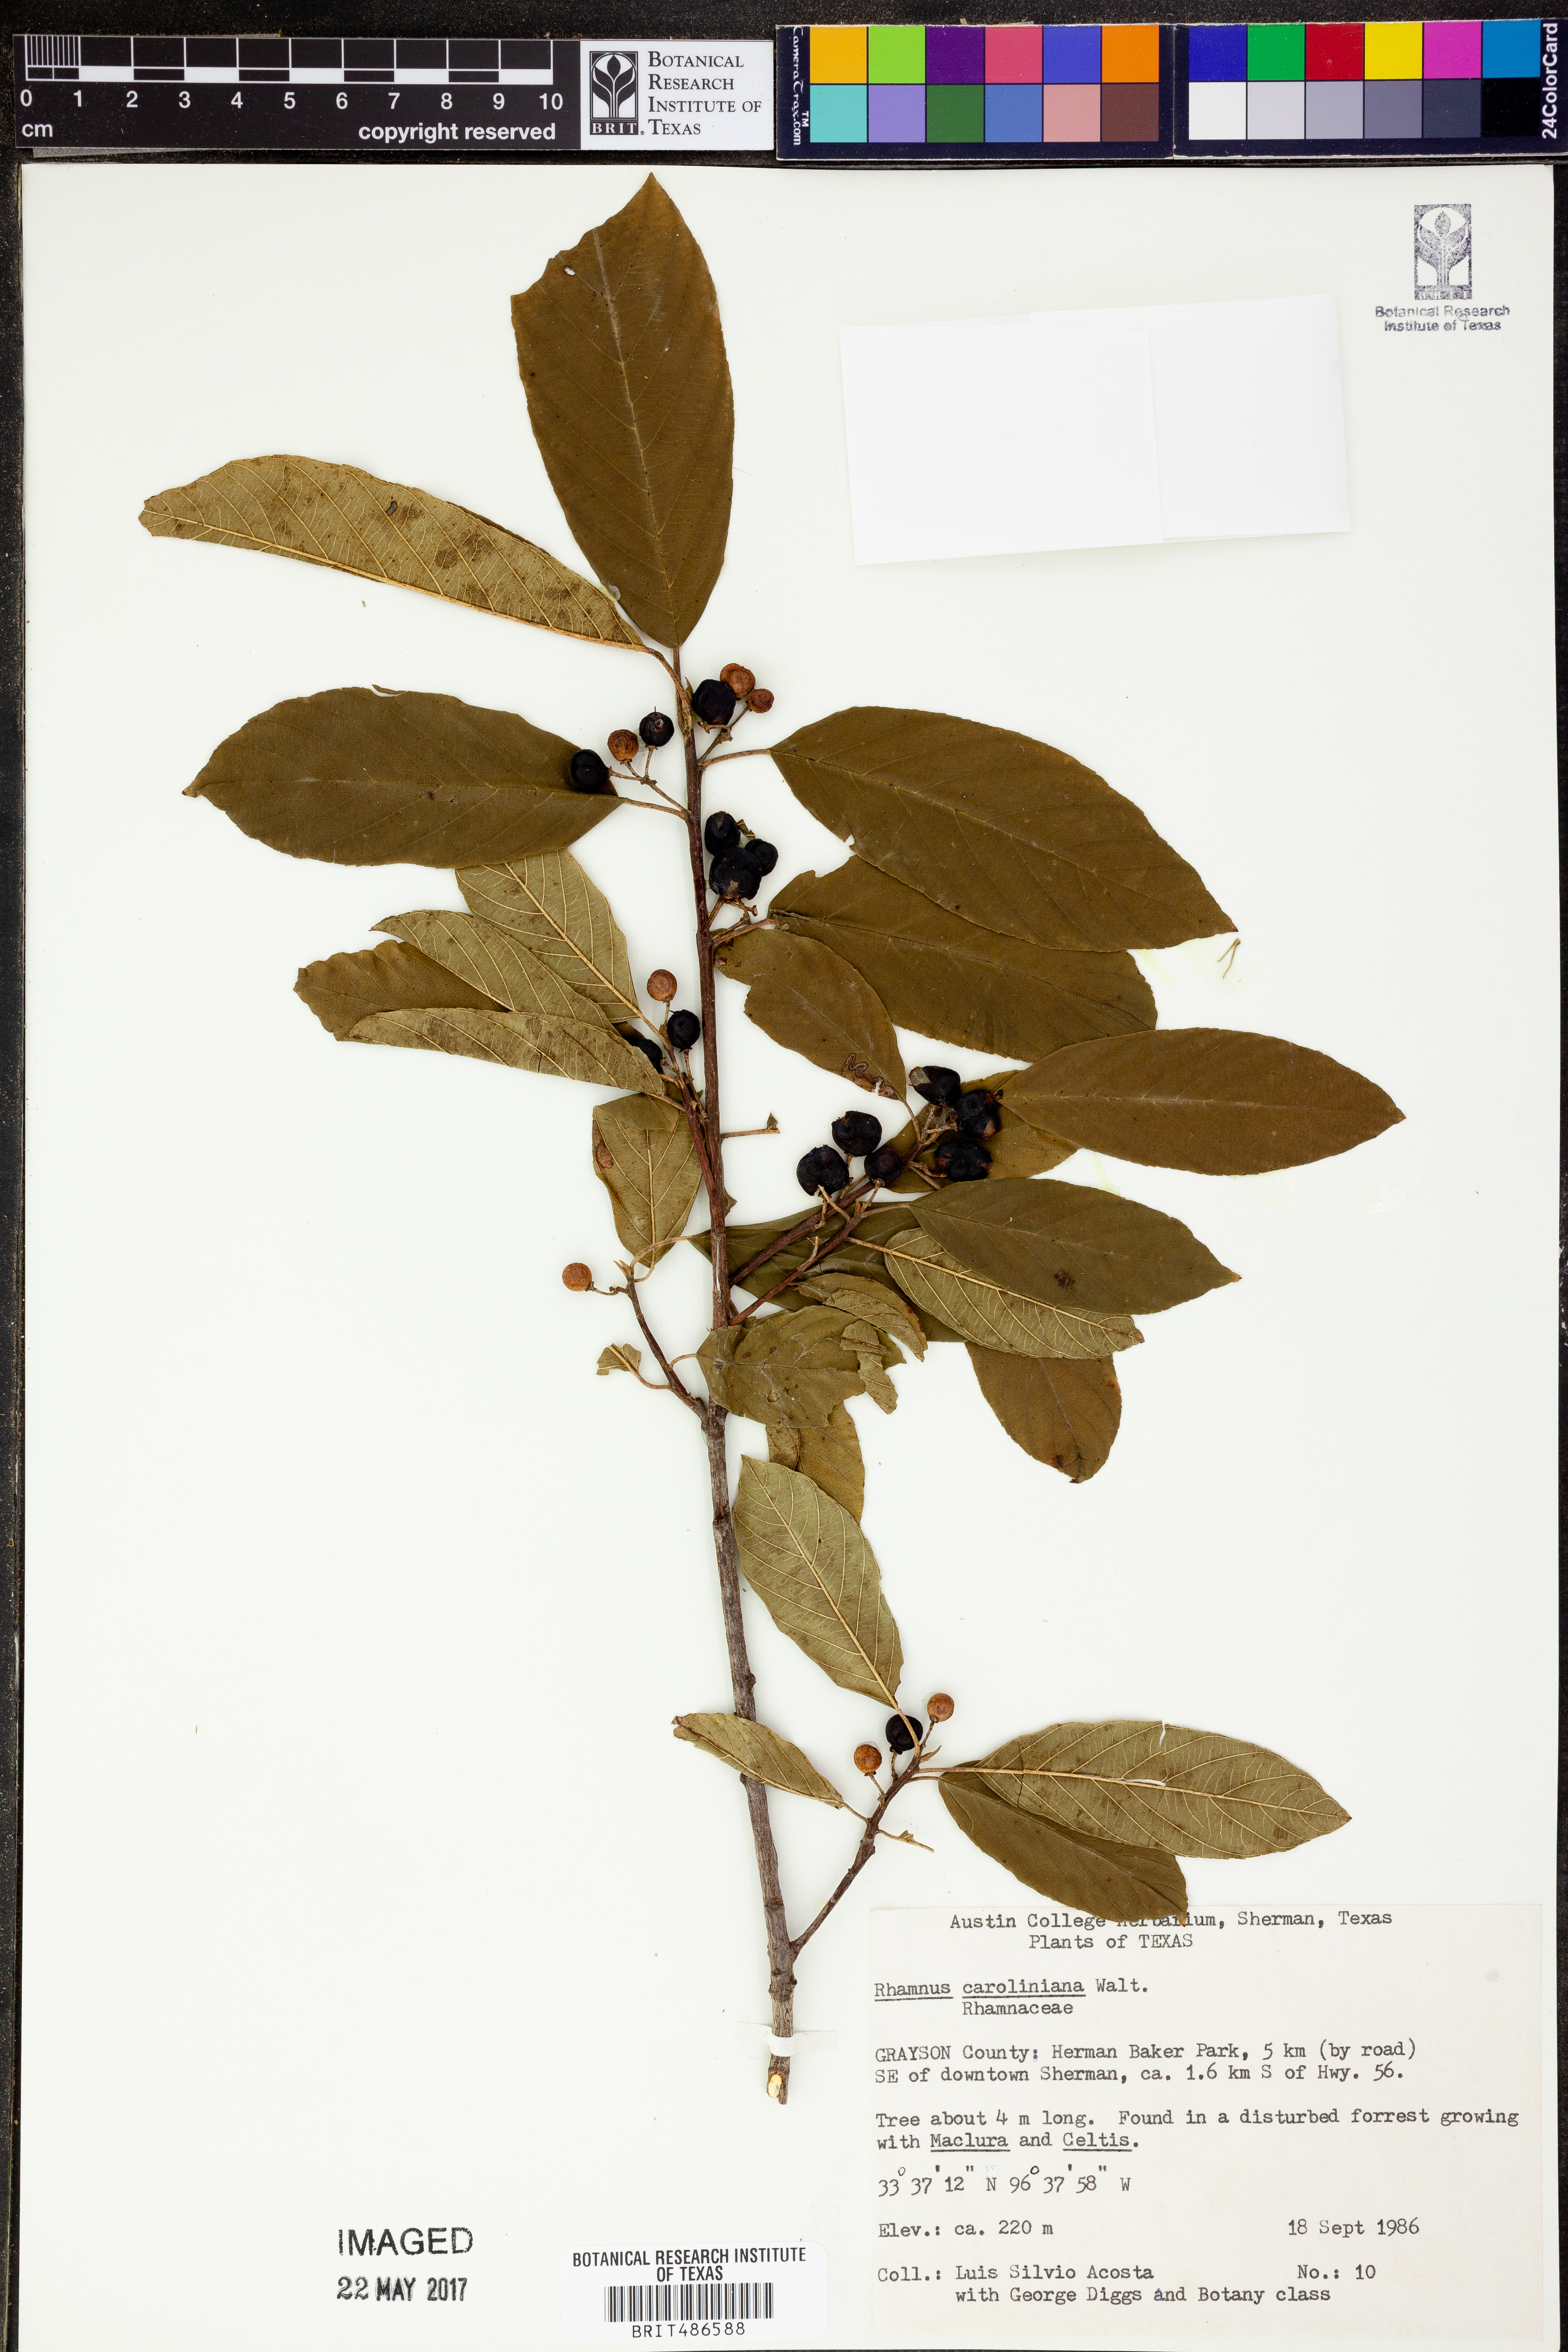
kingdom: Plantae
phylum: Tracheophyta
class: Magnoliopsida
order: Rosales
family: Rhamnaceae
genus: Frangula
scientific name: Frangula caroliniana
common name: Carolina buckthorn
